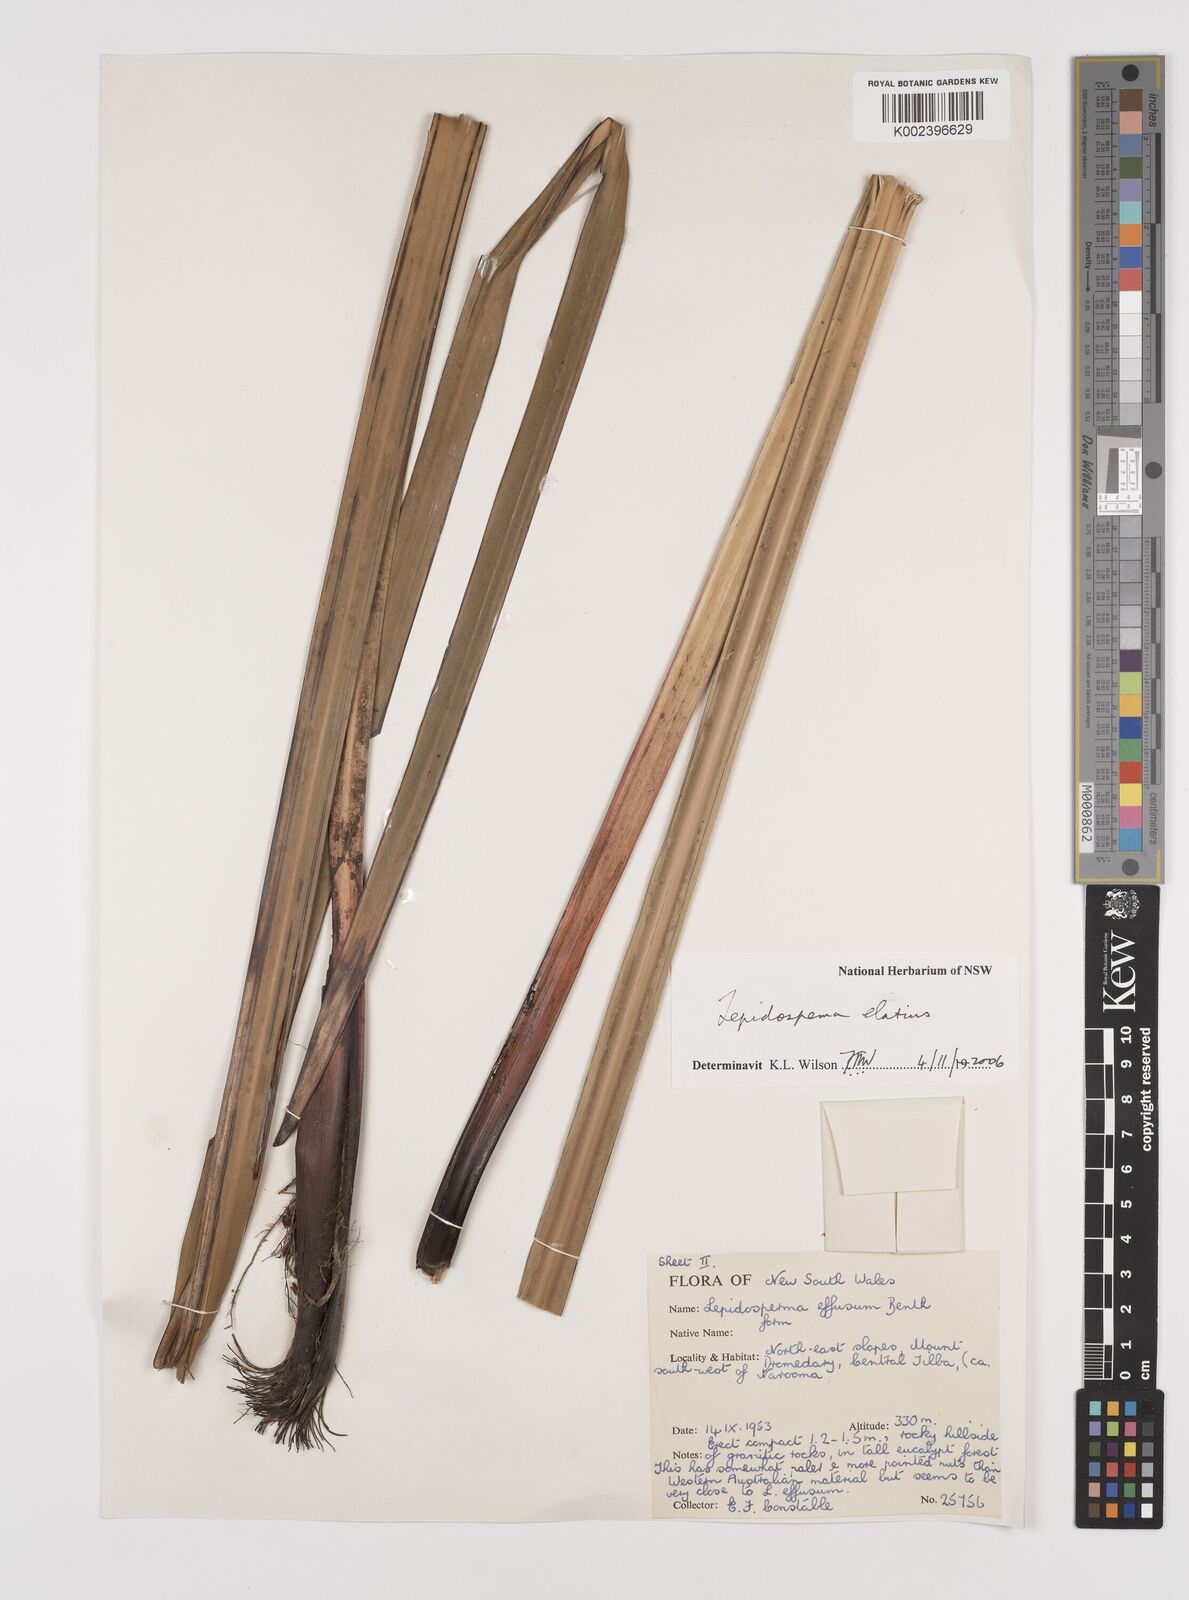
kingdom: Plantae
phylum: Tracheophyta
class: Liliopsida
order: Poales
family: Cyperaceae
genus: Lepidosperma
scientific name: Lepidosperma elatius
